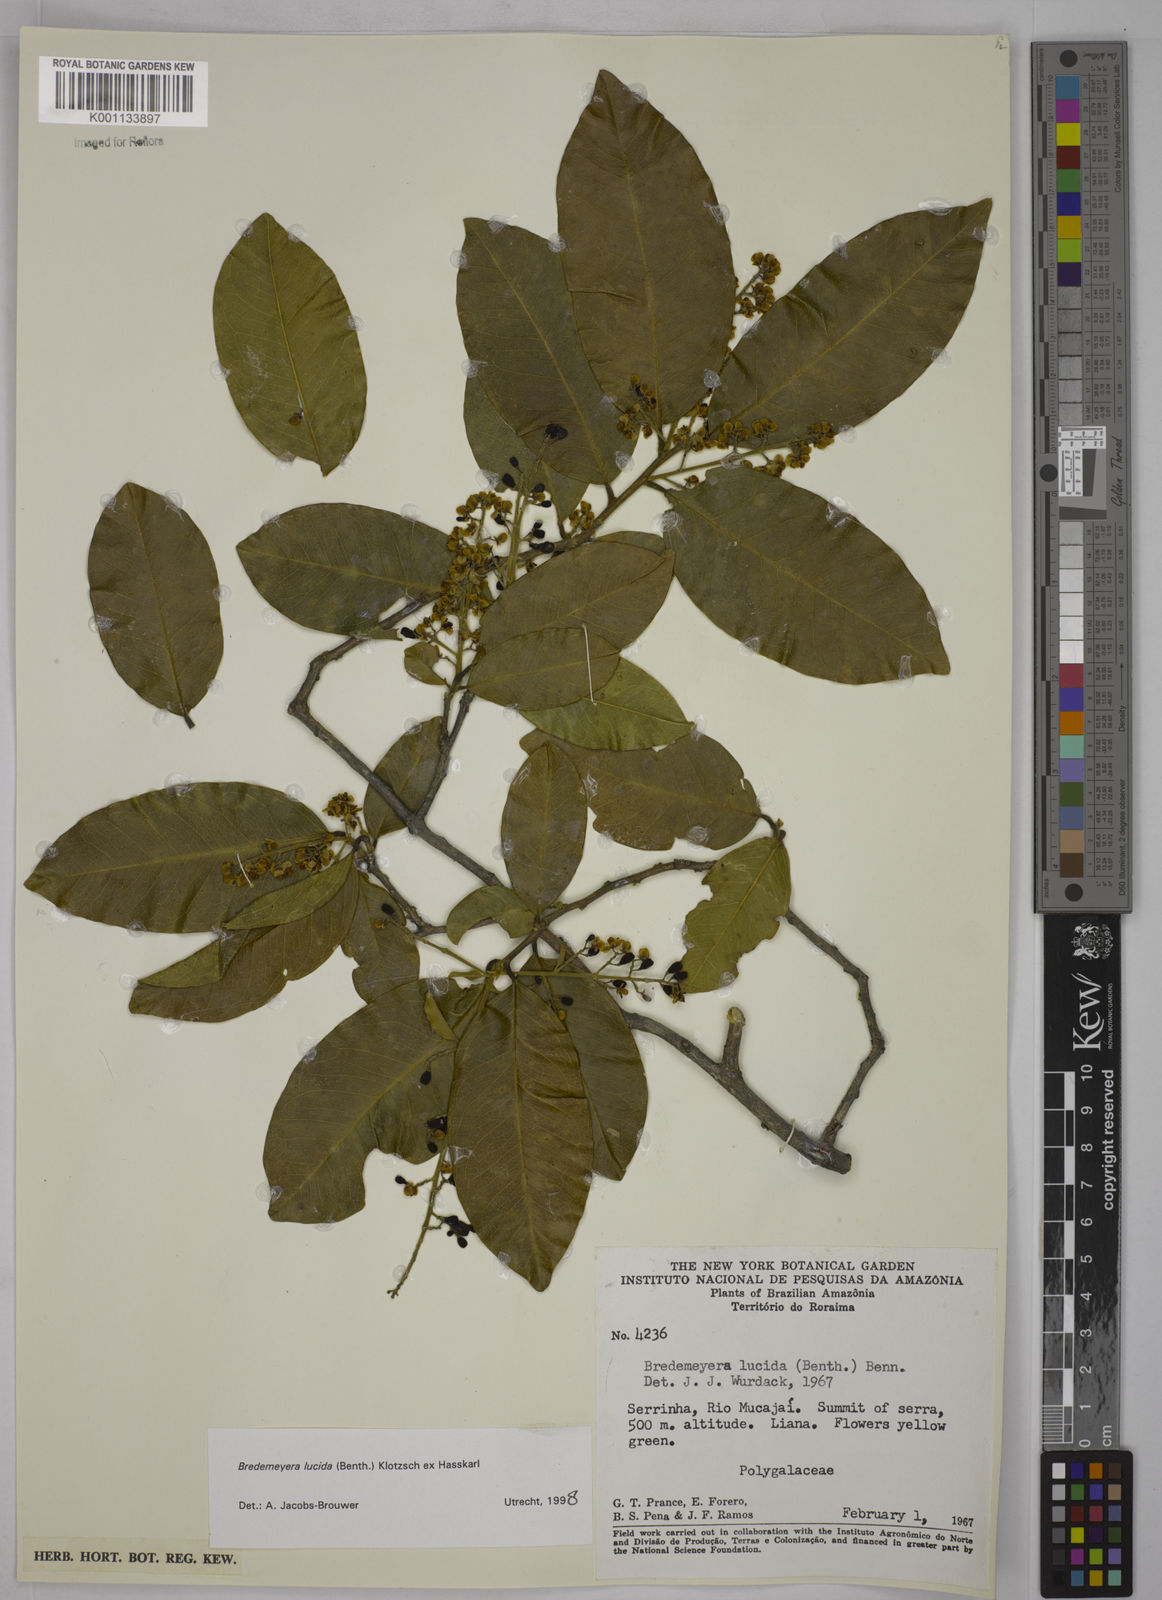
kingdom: Plantae
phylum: Tracheophyta
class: Magnoliopsida
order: Fabales
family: Polygalaceae
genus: Bredemeyera
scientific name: Bredemeyera lucida
